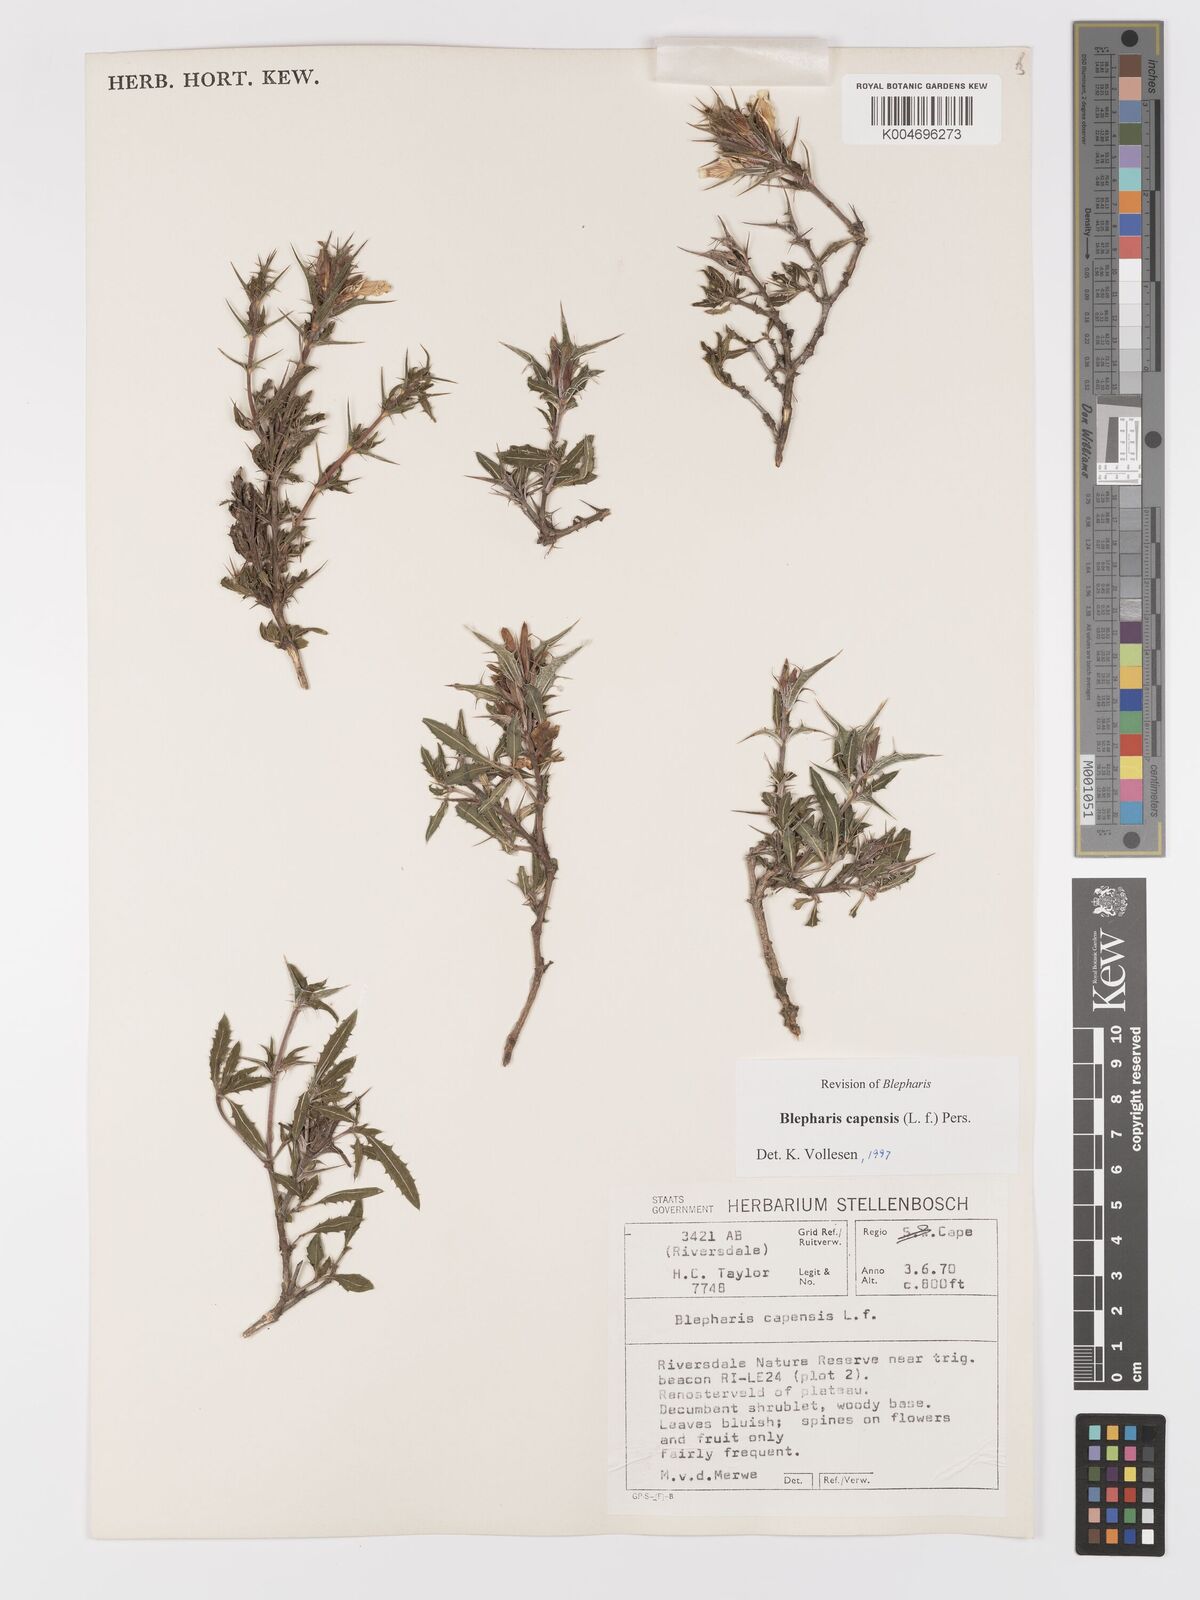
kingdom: Plantae
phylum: Tracheophyta
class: Magnoliopsida
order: Lamiales
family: Acanthaceae
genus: Blepharis
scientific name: Blepharis capensis
